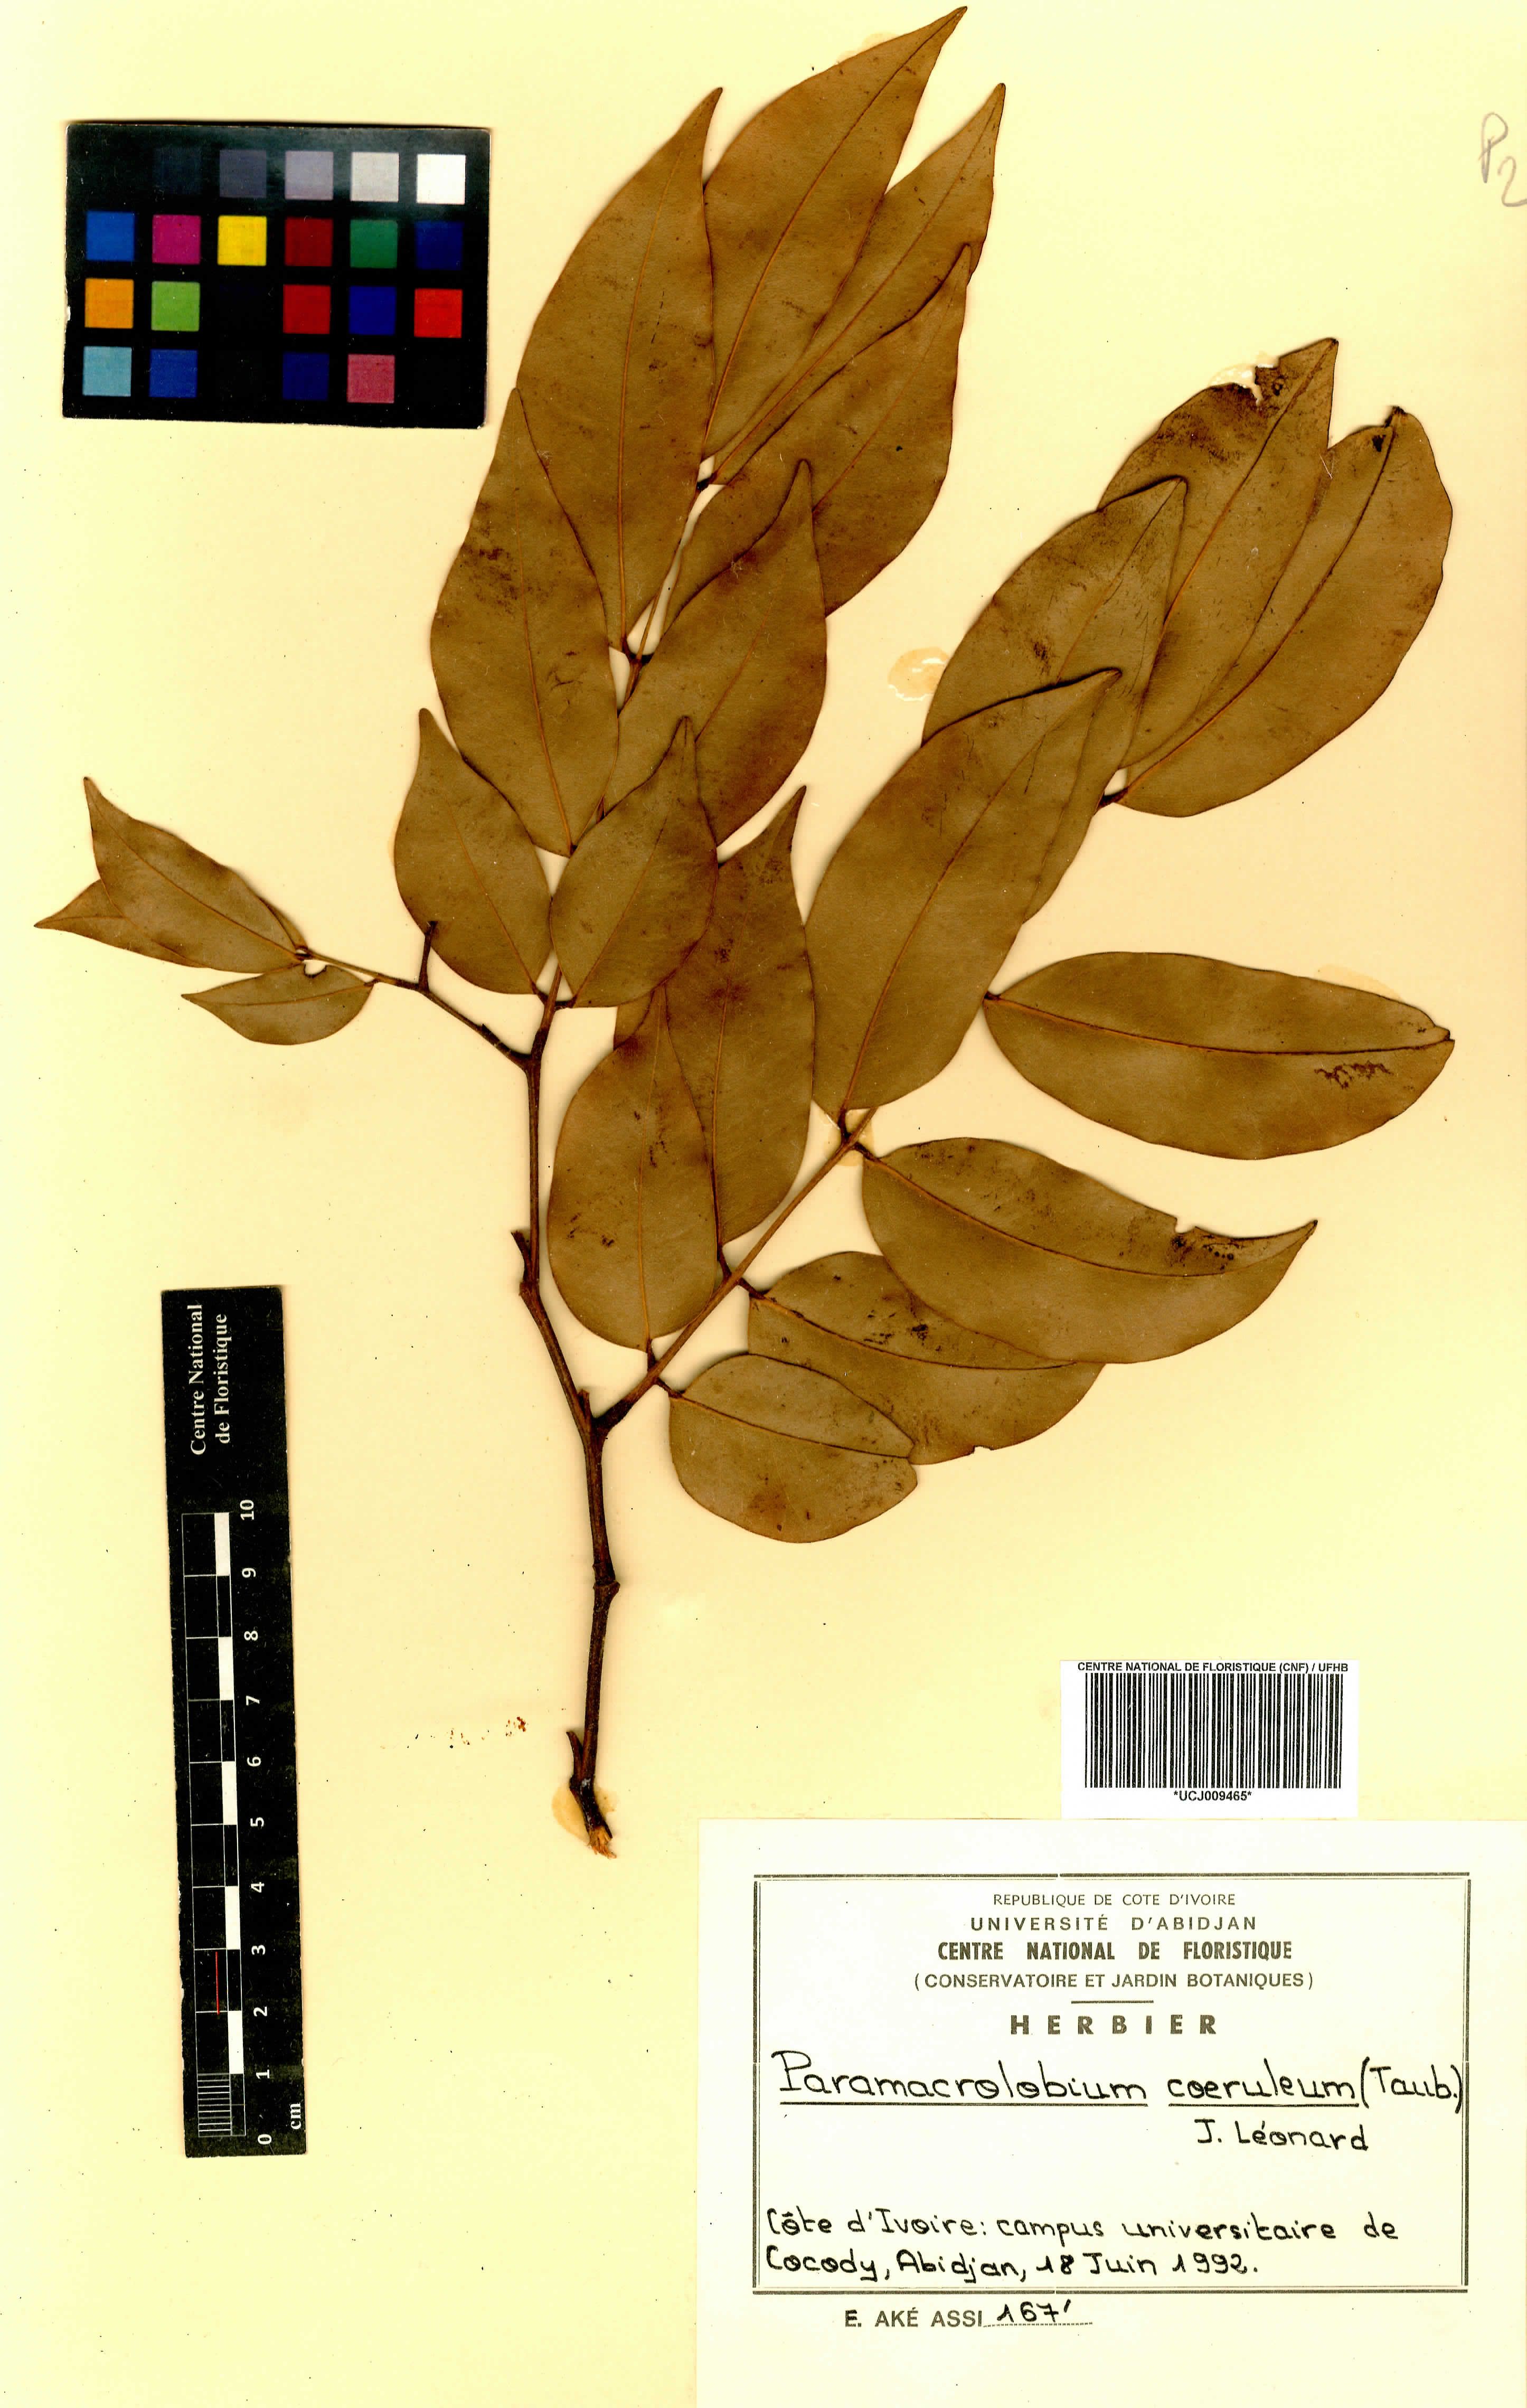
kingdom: Plantae
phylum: Tracheophyta
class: Magnoliopsida
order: Fabales
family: Fabaceae
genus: Paramacrolobium
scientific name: Paramacrolobium coeruleum
